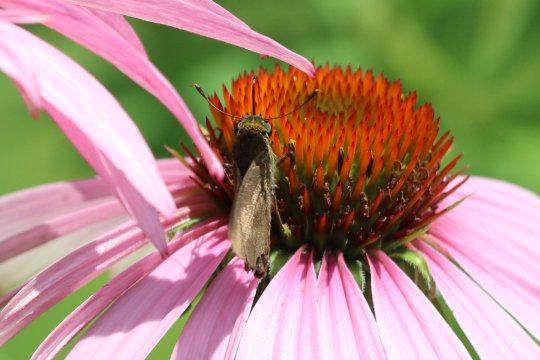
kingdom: Animalia
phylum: Arthropoda
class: Insecta
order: Lepidoptera
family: Hesperiidae
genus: Polites
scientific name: Polites egeremet
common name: Northern Broken-Dash
